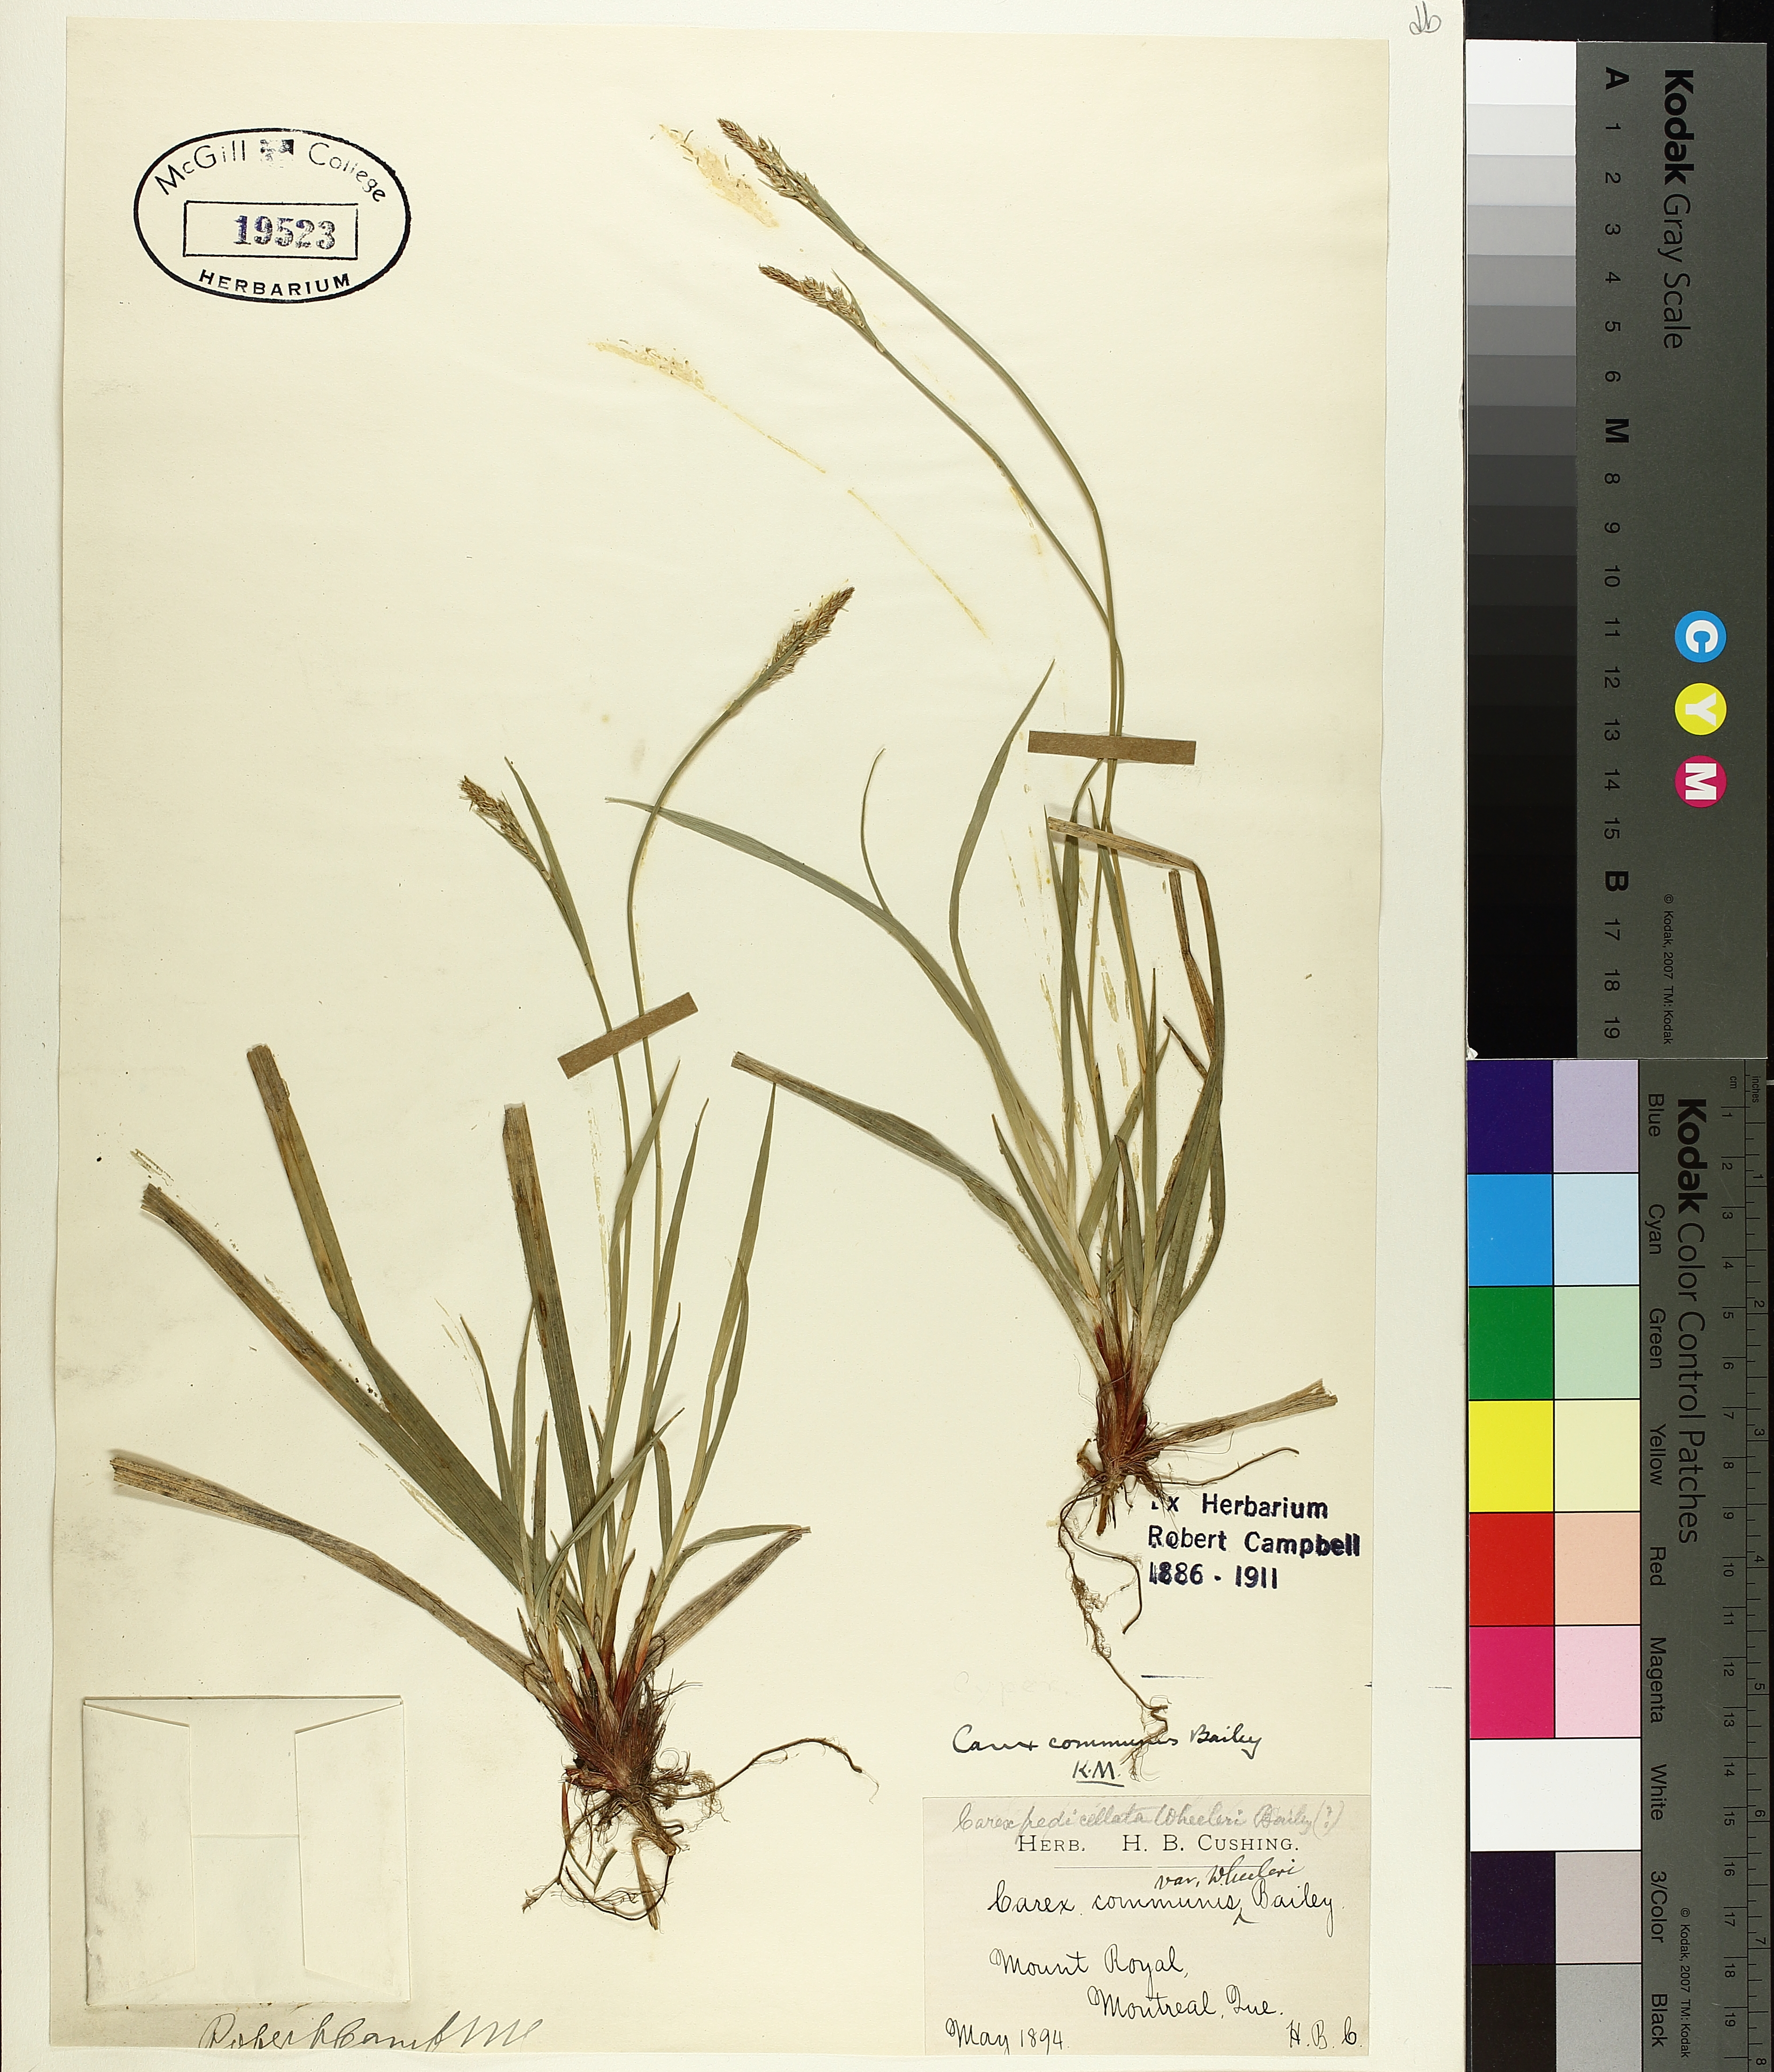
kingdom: Plantae
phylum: Tracheophyta
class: Liliopsida
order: Poales
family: Cyperaceae
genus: Carex
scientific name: Carex austrina
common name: Southern sedge
